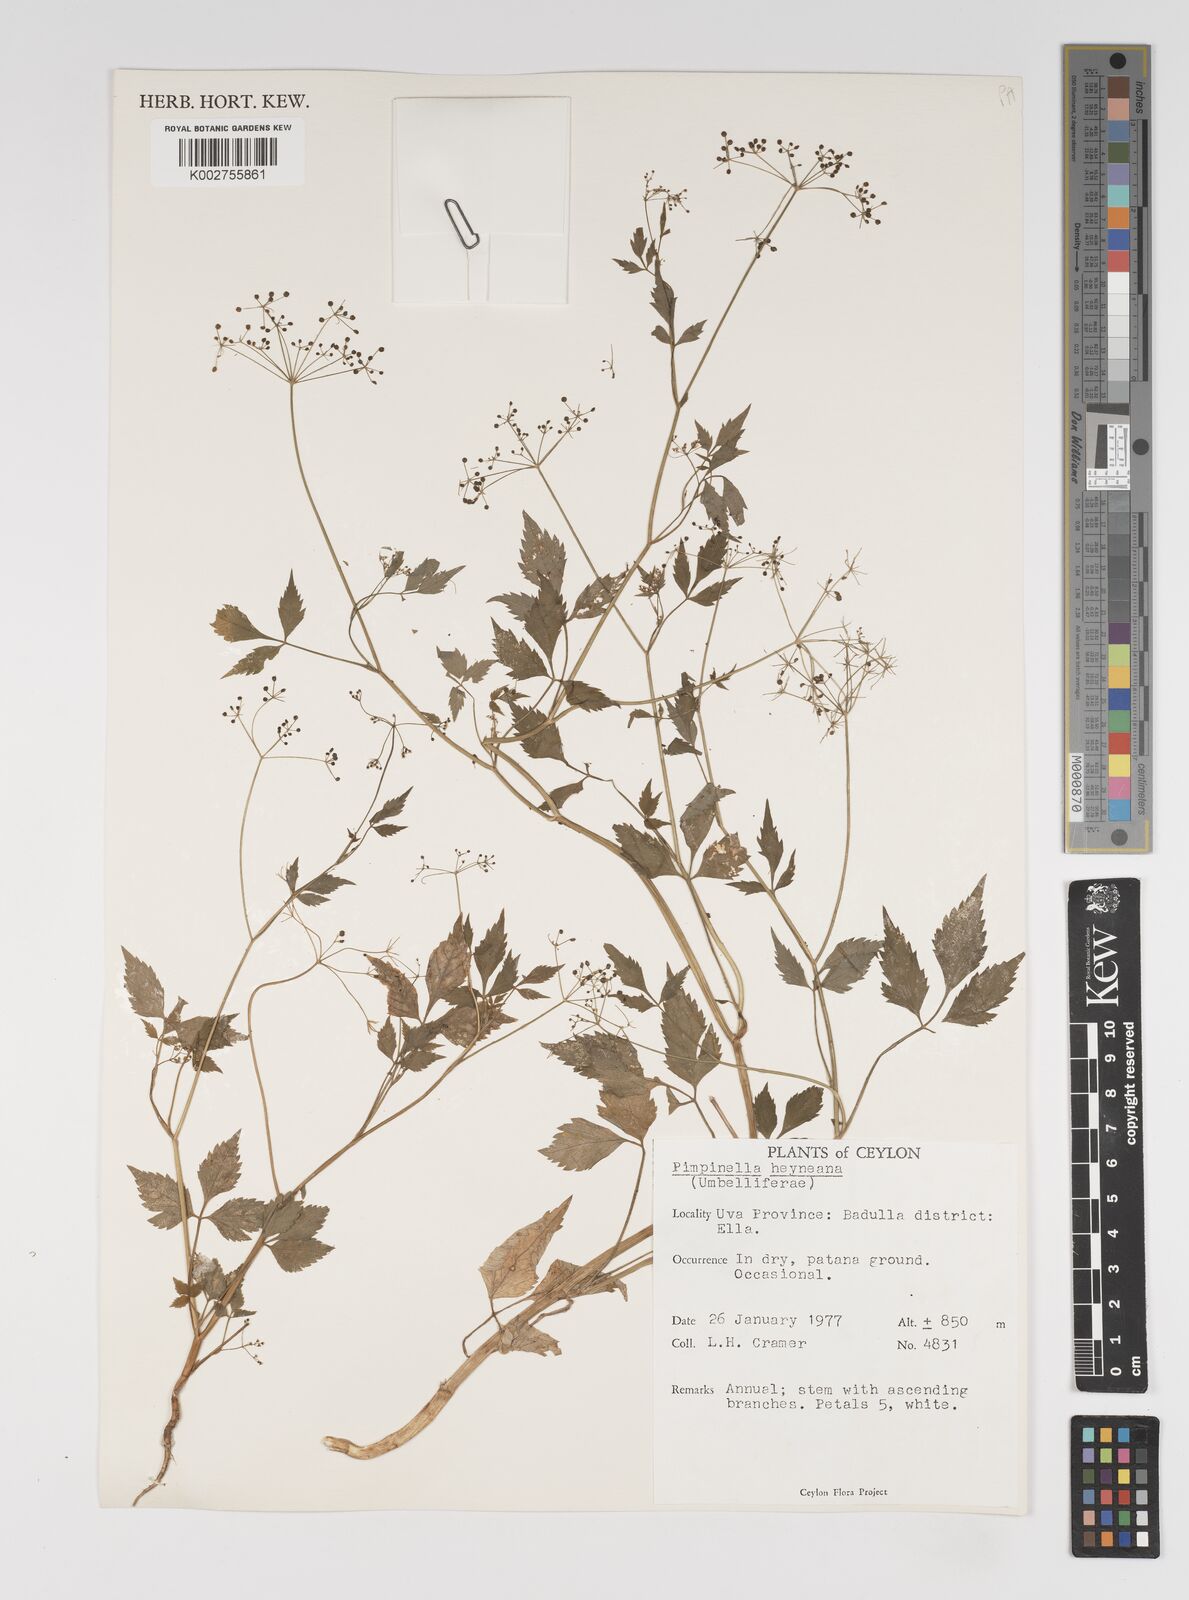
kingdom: Plantae
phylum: Tracheophyta
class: Magnoliopsida
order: Apiales
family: Apiaceae
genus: Pimpinella
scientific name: Pimpinella heyneana
